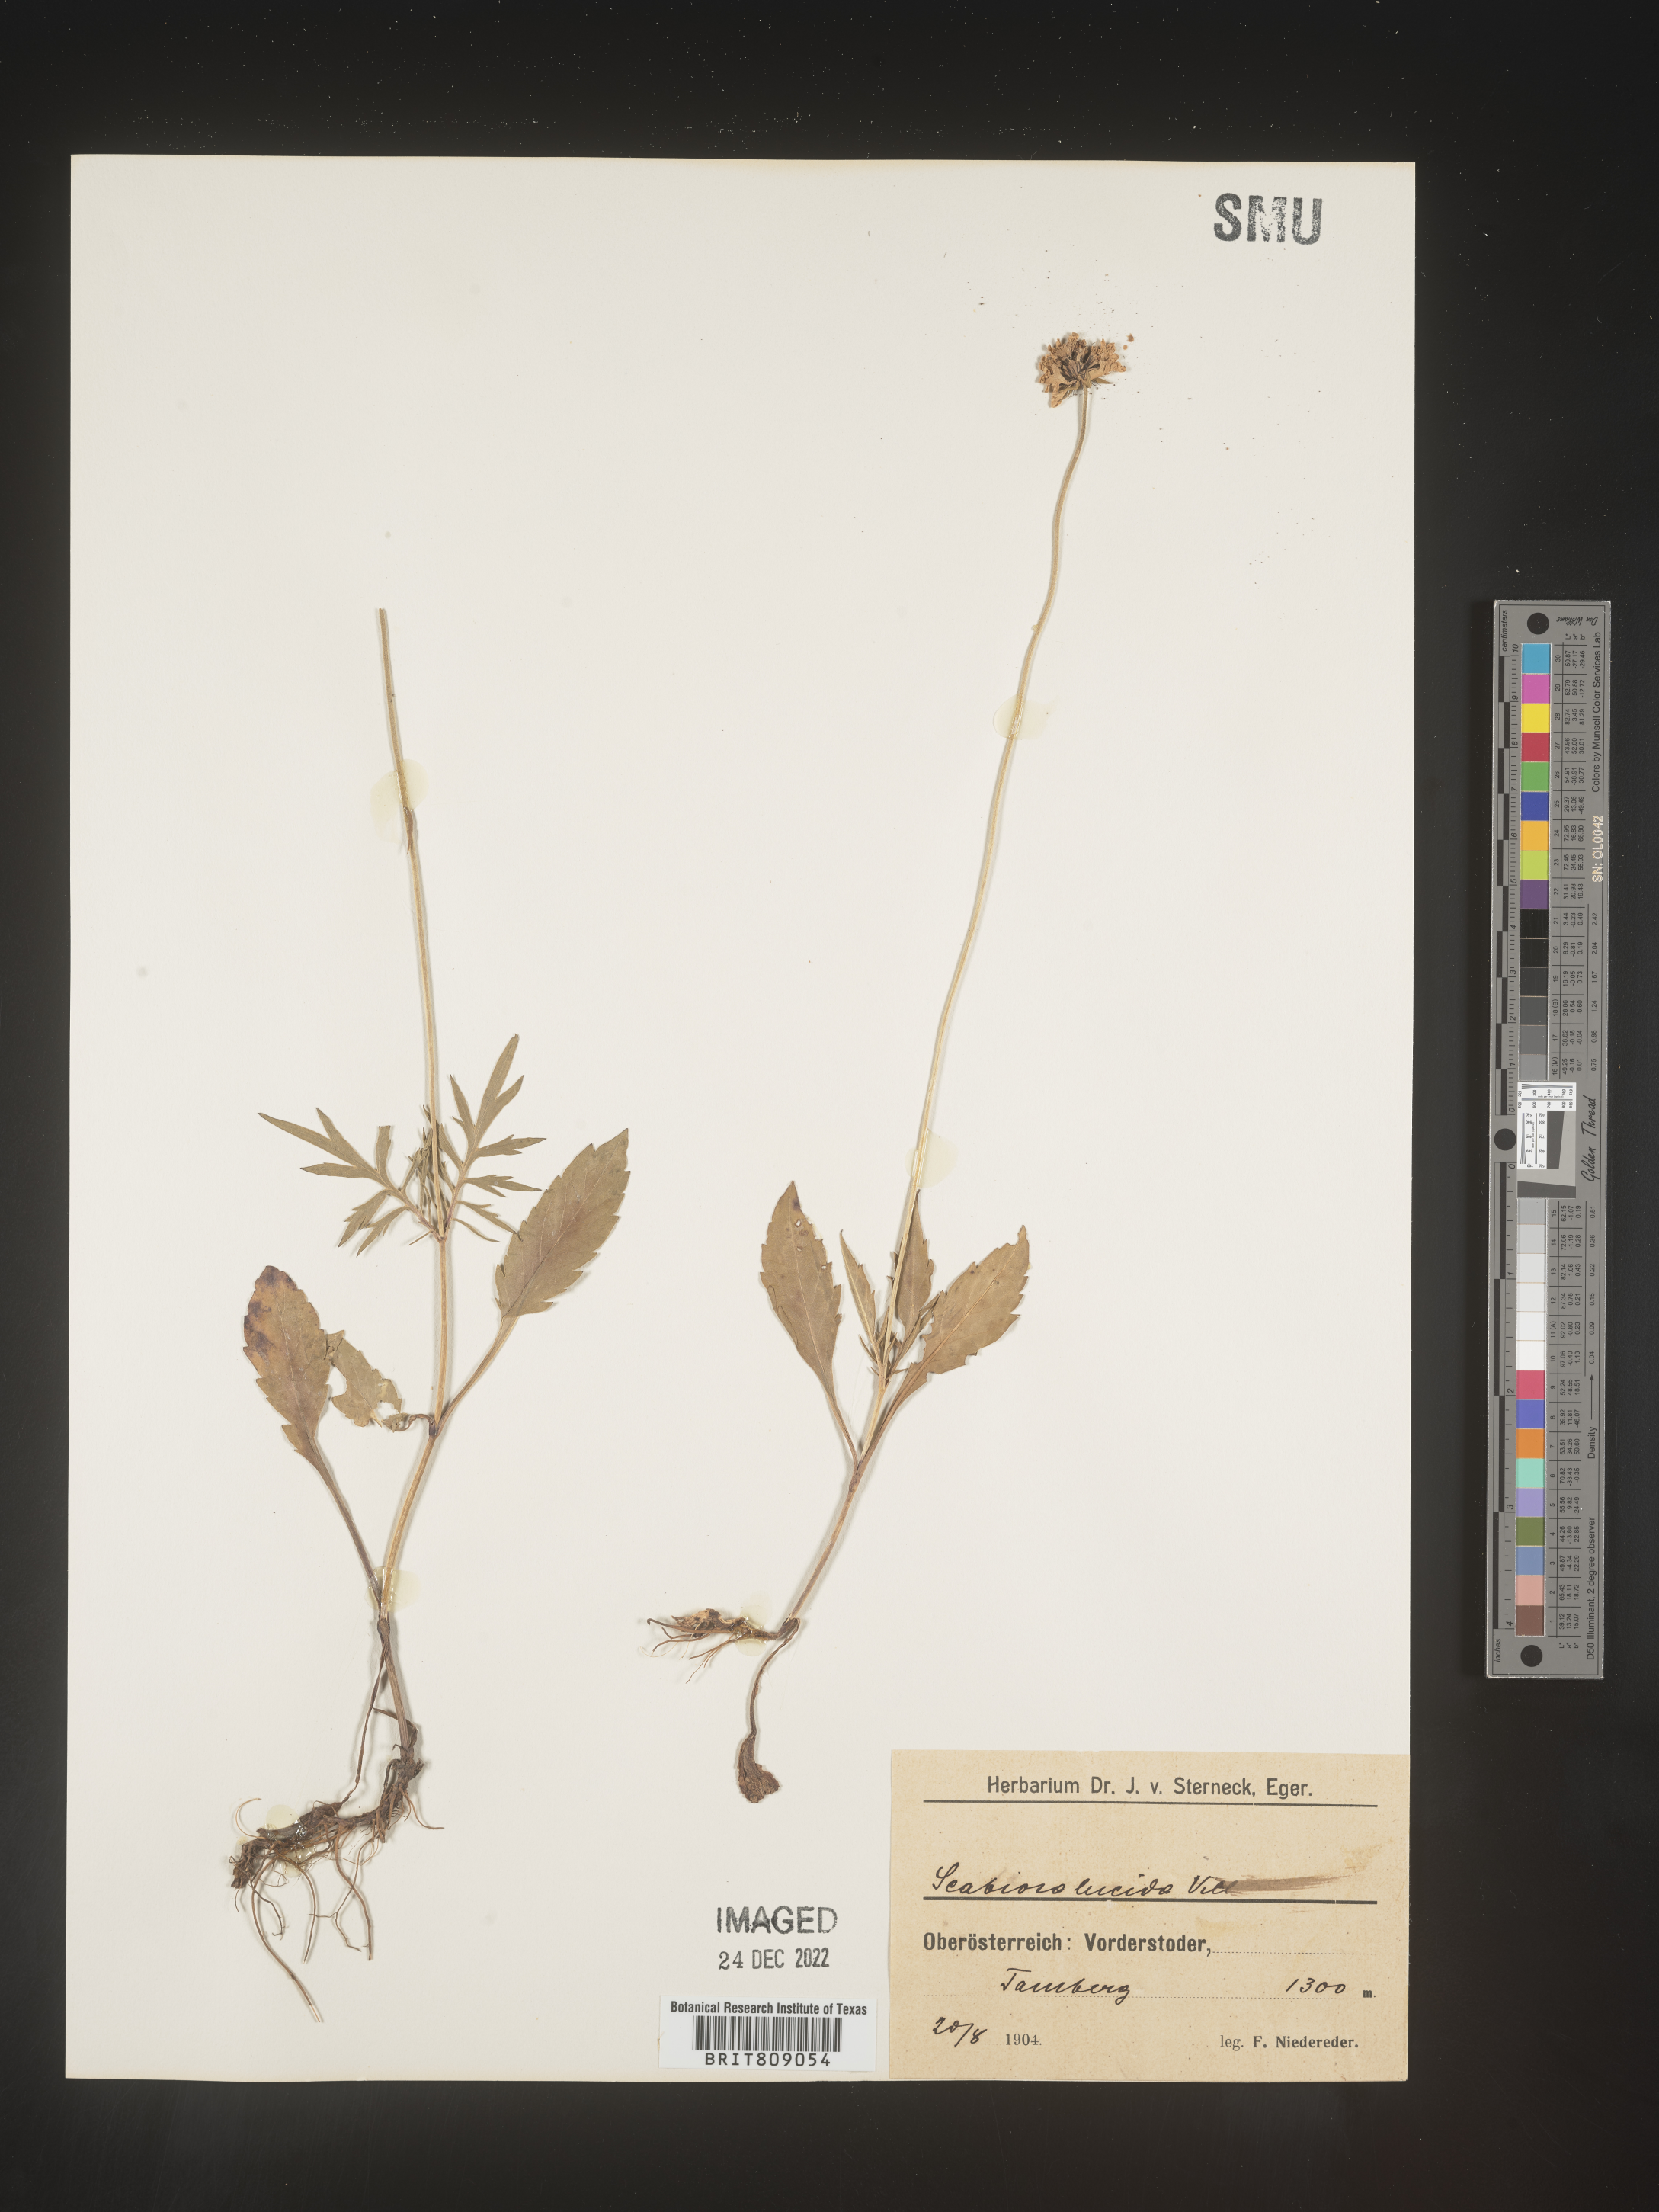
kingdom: Plantae
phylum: Tracheophyta
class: Magnoliopsida
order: Dipsacales
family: Caprifoliaceae
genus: Scabiosa
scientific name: Scabiosa
